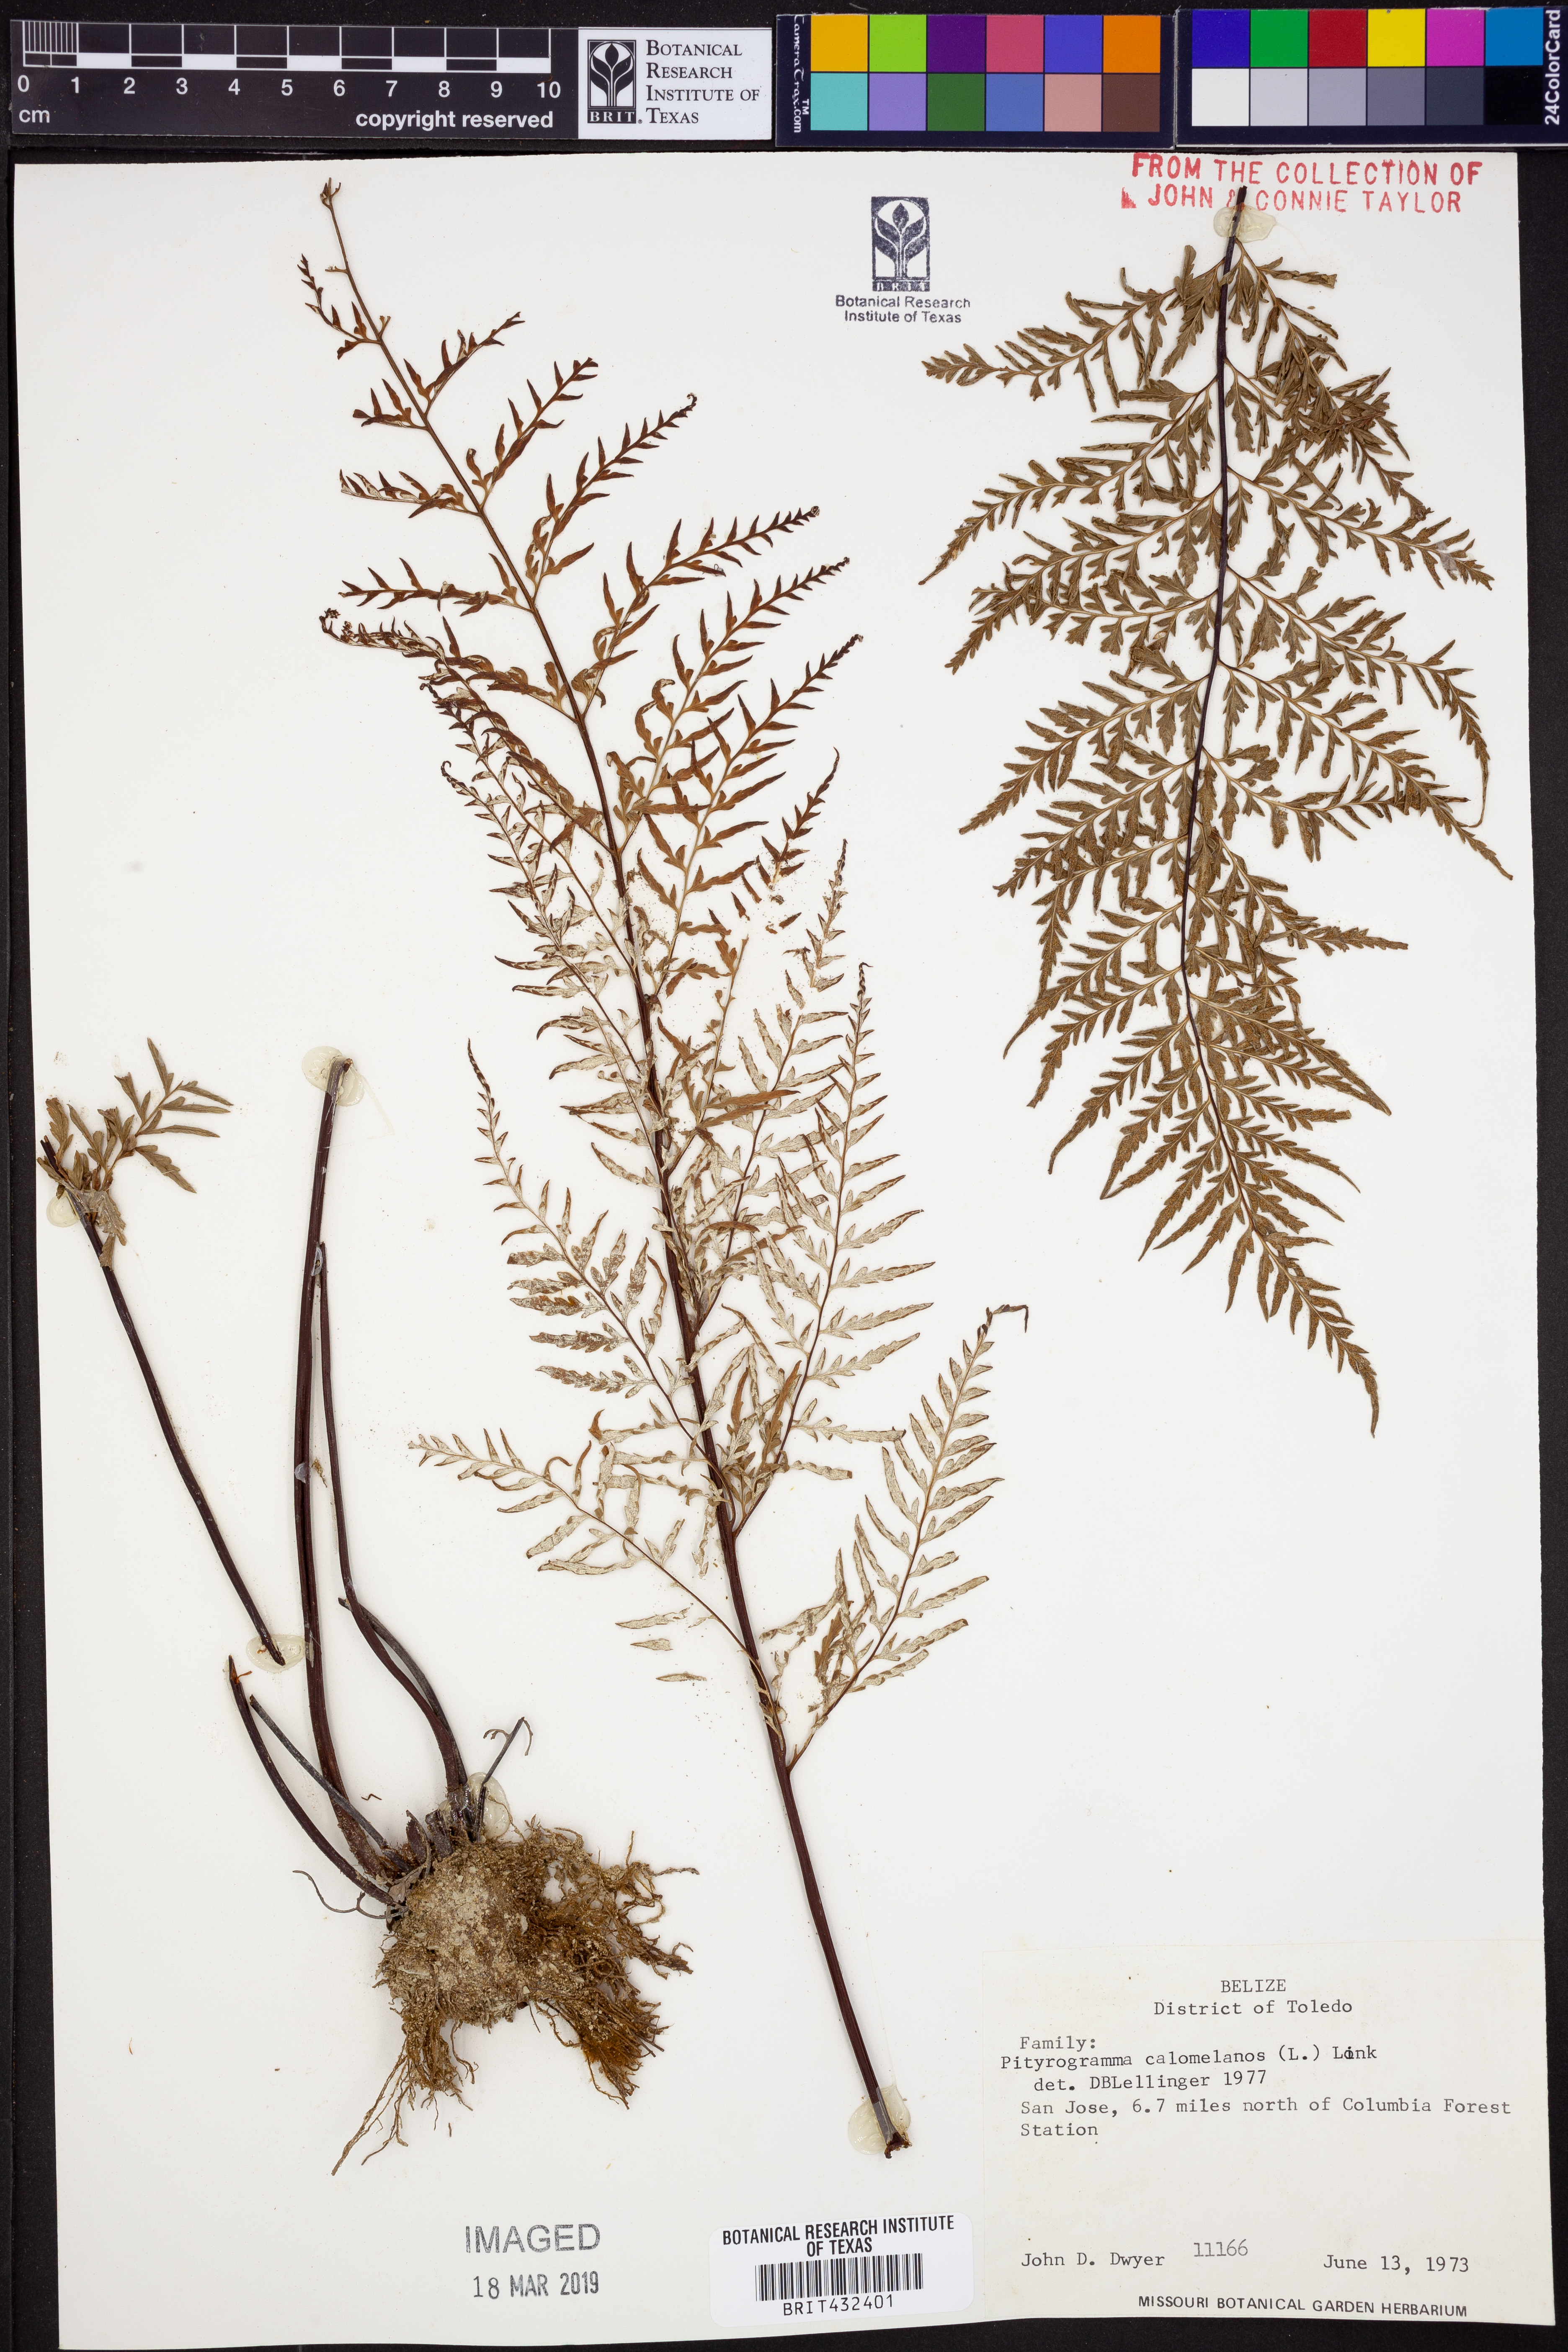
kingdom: Plantae
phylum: Tracheophyta
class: Polypodiopsida
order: Polypodiales
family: Pteridaceae
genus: Pityrogramma
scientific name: Pityrogramma calomelanos
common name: Dixie silverback fern
